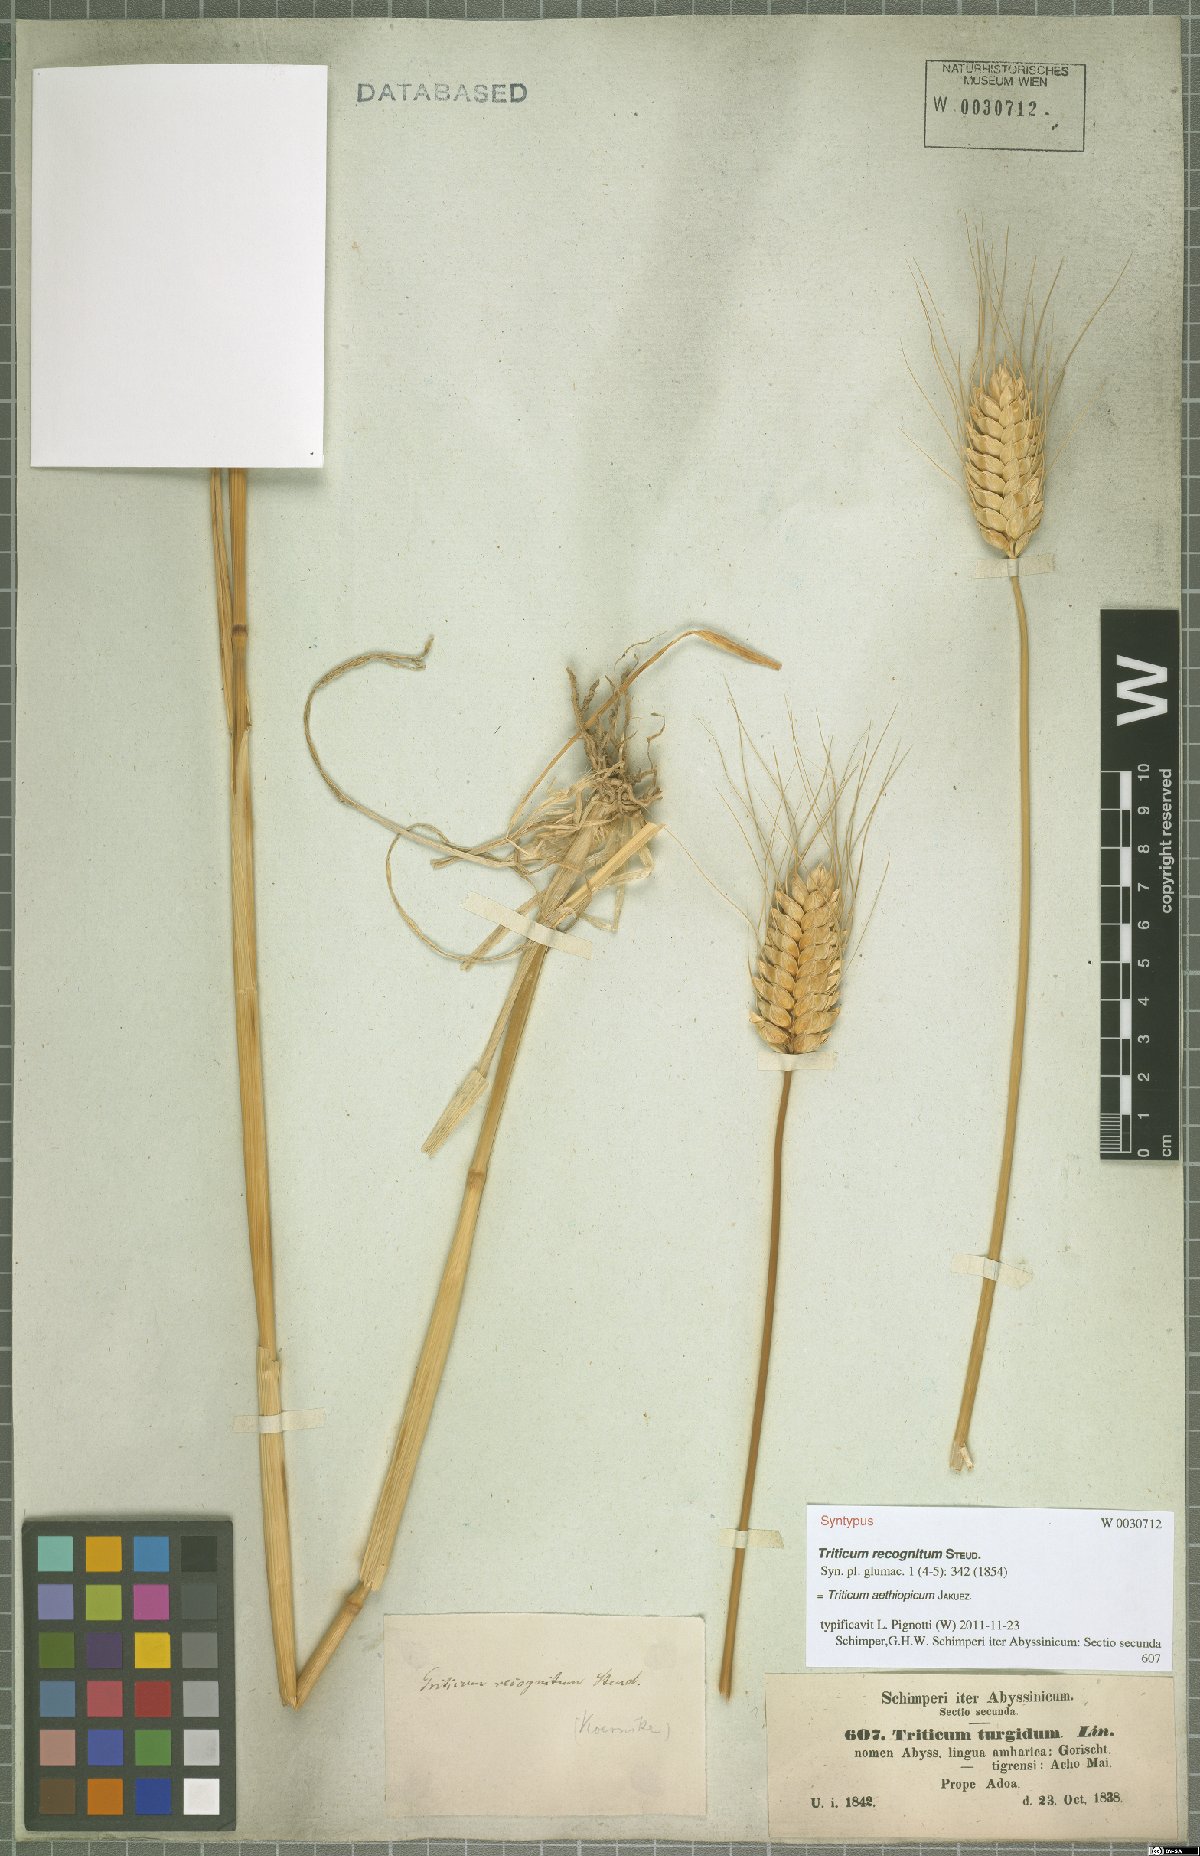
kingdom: Plantae
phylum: Tracheophyta
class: Liliopsida
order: Poales
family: Poaceae
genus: Triticum
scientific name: Triticum turgidum
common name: Rivet wheat
